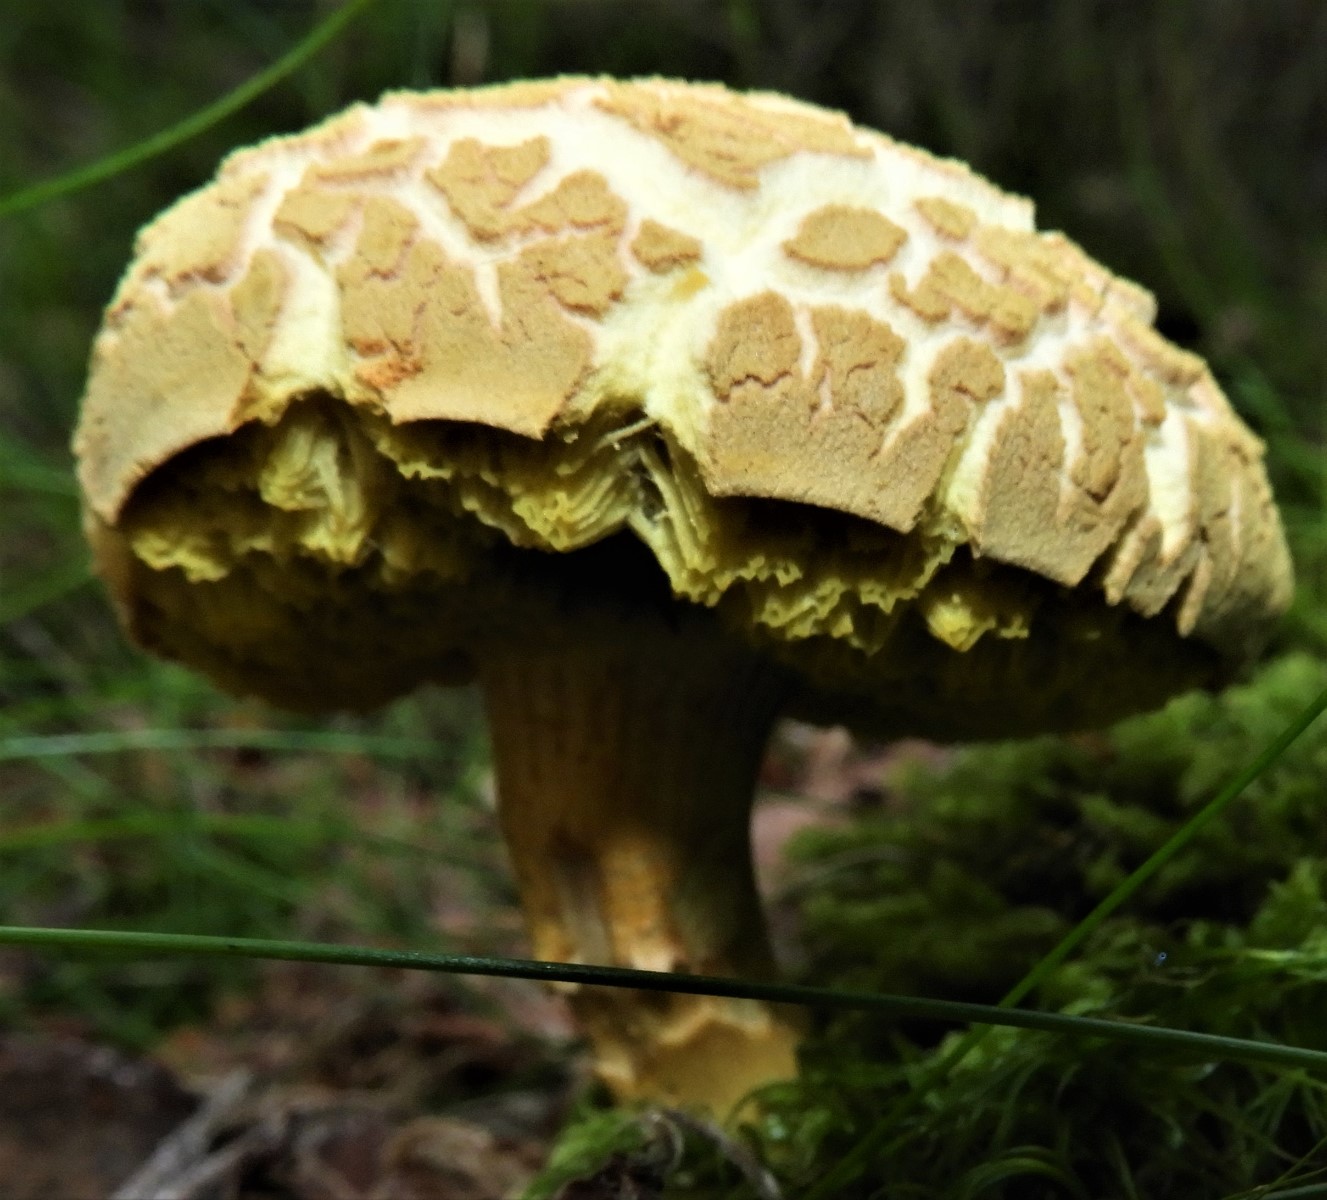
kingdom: Fungi
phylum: Basidiomycota
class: Agaricomycetes
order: Boletales
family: Boletaceae
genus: Xerocomus
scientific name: Xerocomus
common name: filtrørhat
